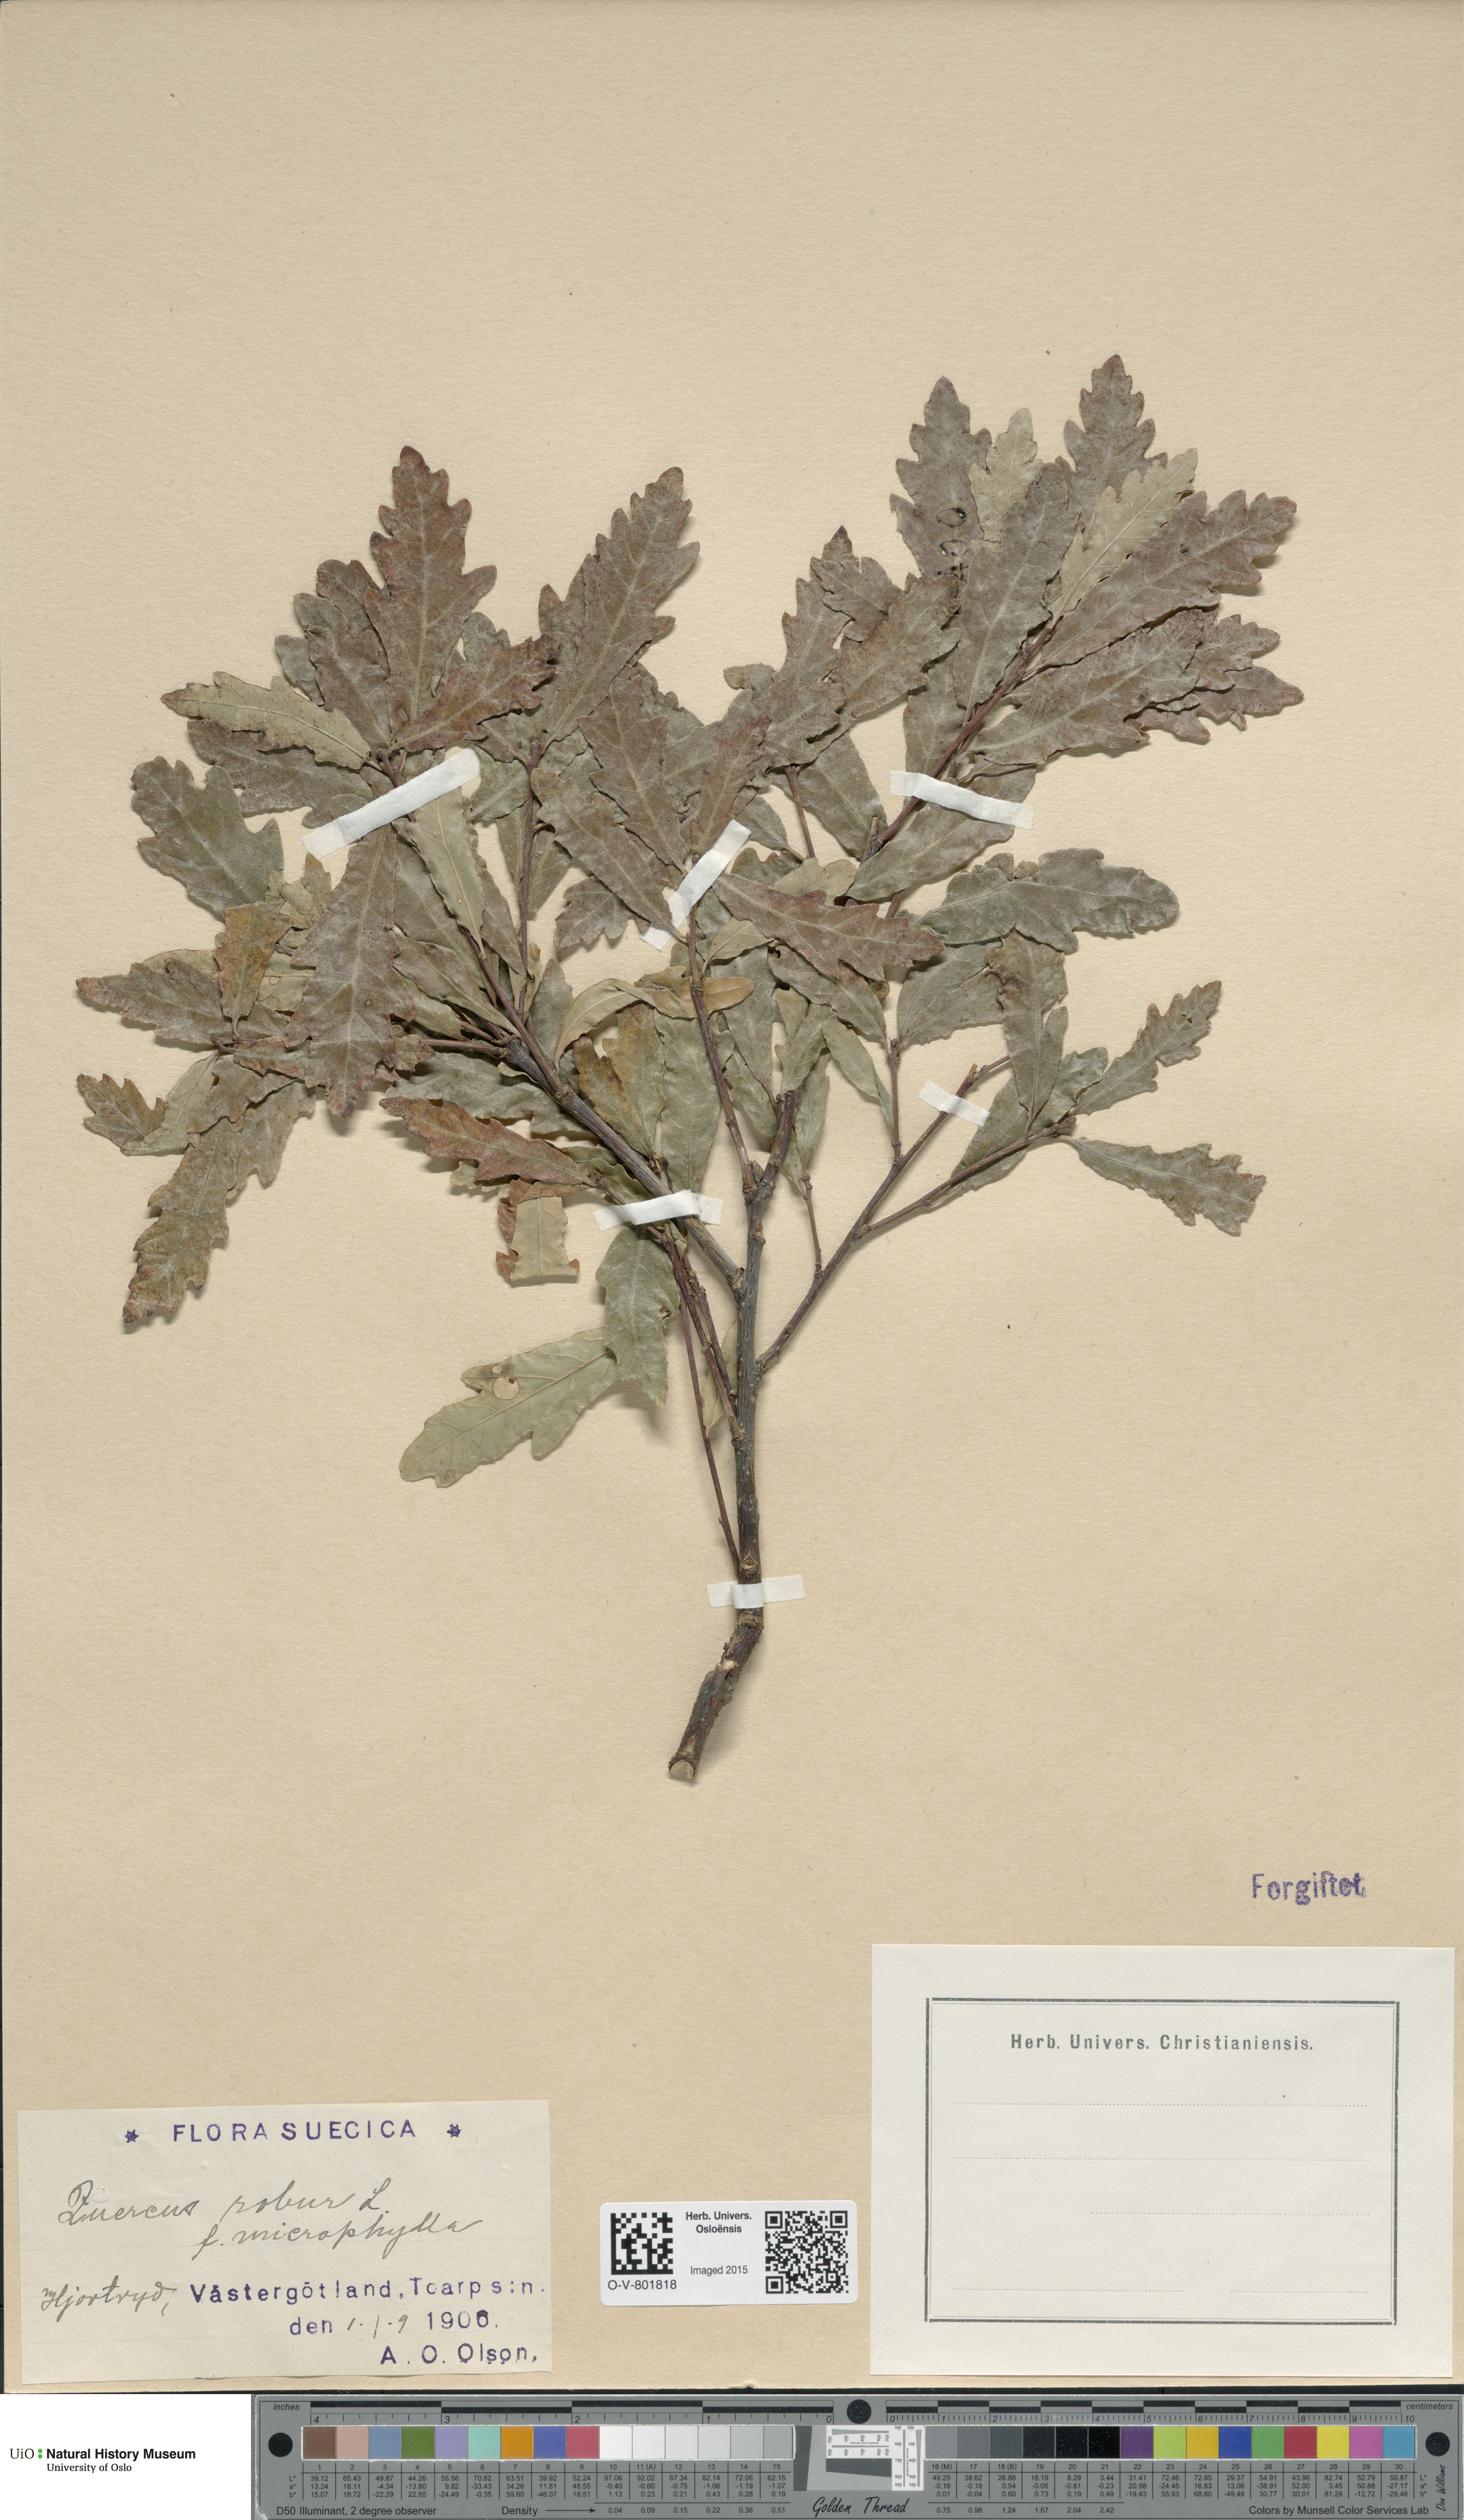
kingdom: Plantae
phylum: Tracheophyta
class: Magnoliopsida
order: Fagales
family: Fagaceae
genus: Quercus
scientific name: Quercus robur
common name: Pedunculate oak
